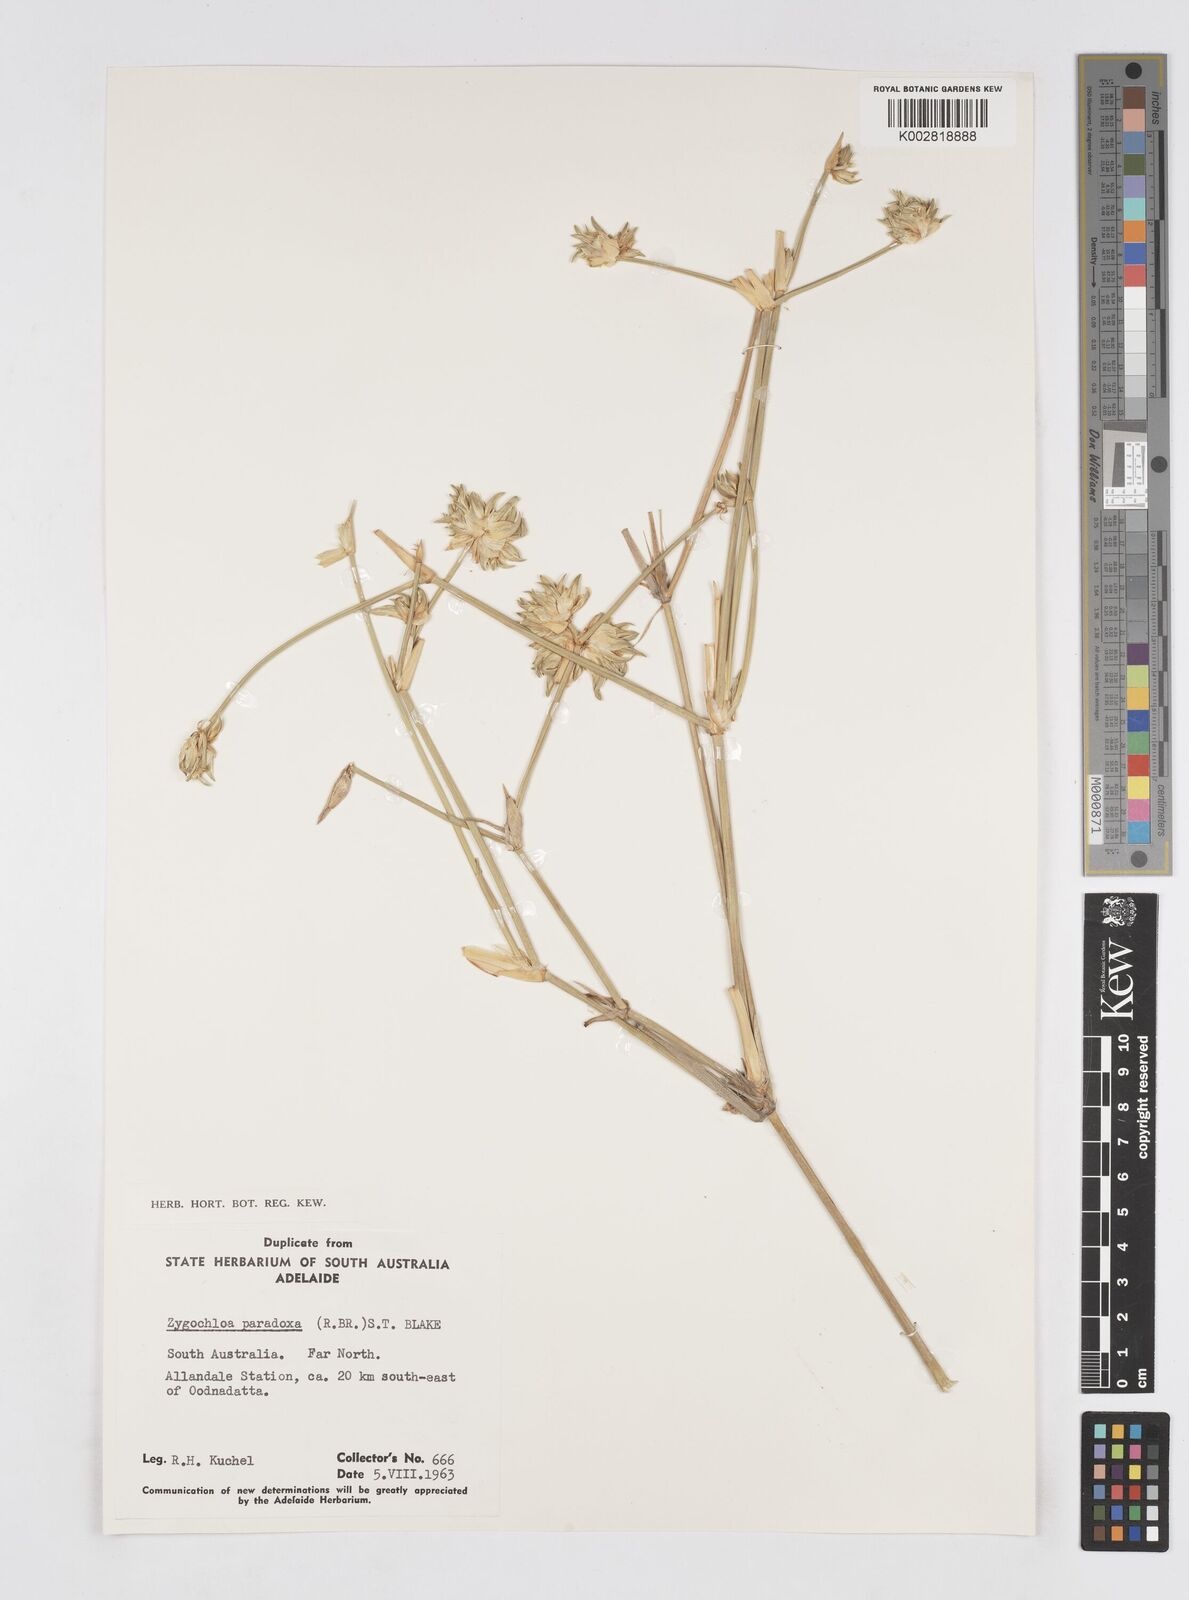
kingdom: Plantae
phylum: Tracheophyta
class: Liliopsida
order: Poales
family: Poaceae
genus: Zygochloa
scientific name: Zygochloa paradoxa
